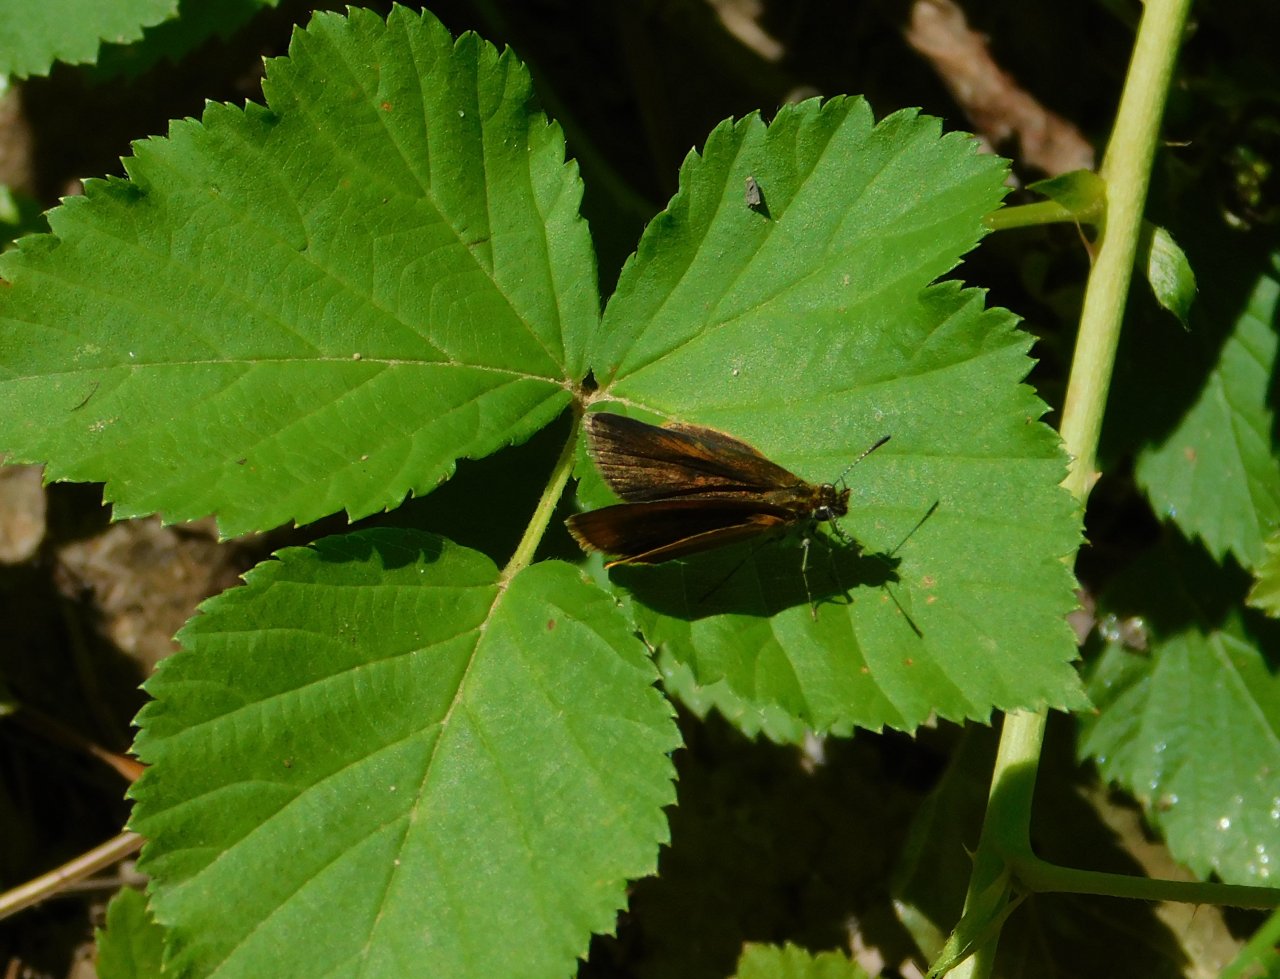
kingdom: Animalia
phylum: Arthropoda
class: Insecta
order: Lepidoptera
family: Hesperiidae
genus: Ancyloxypha
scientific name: Ancyloxypha numitor
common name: Least Skipper
